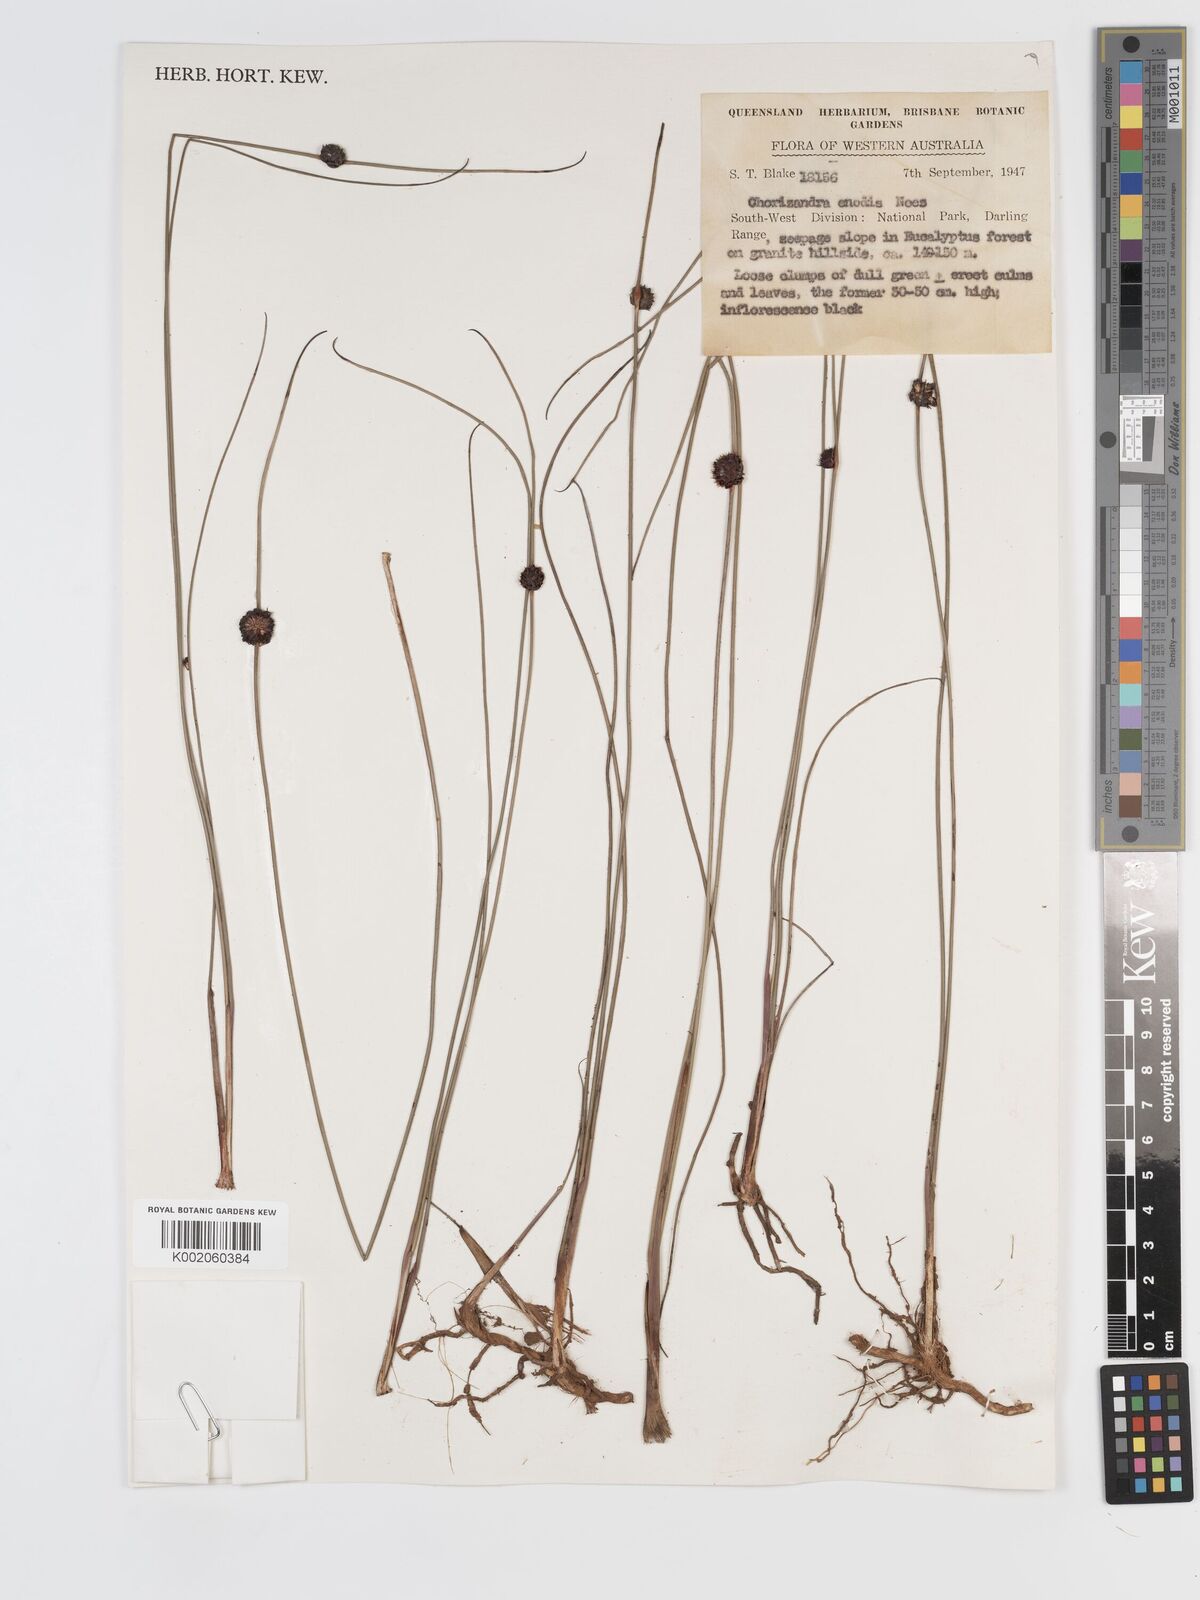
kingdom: Plantae
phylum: Tracheophyta
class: Liliopsida
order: Poales
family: Cyperaceae
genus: Chorizandra
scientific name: Chorizandra enodis
